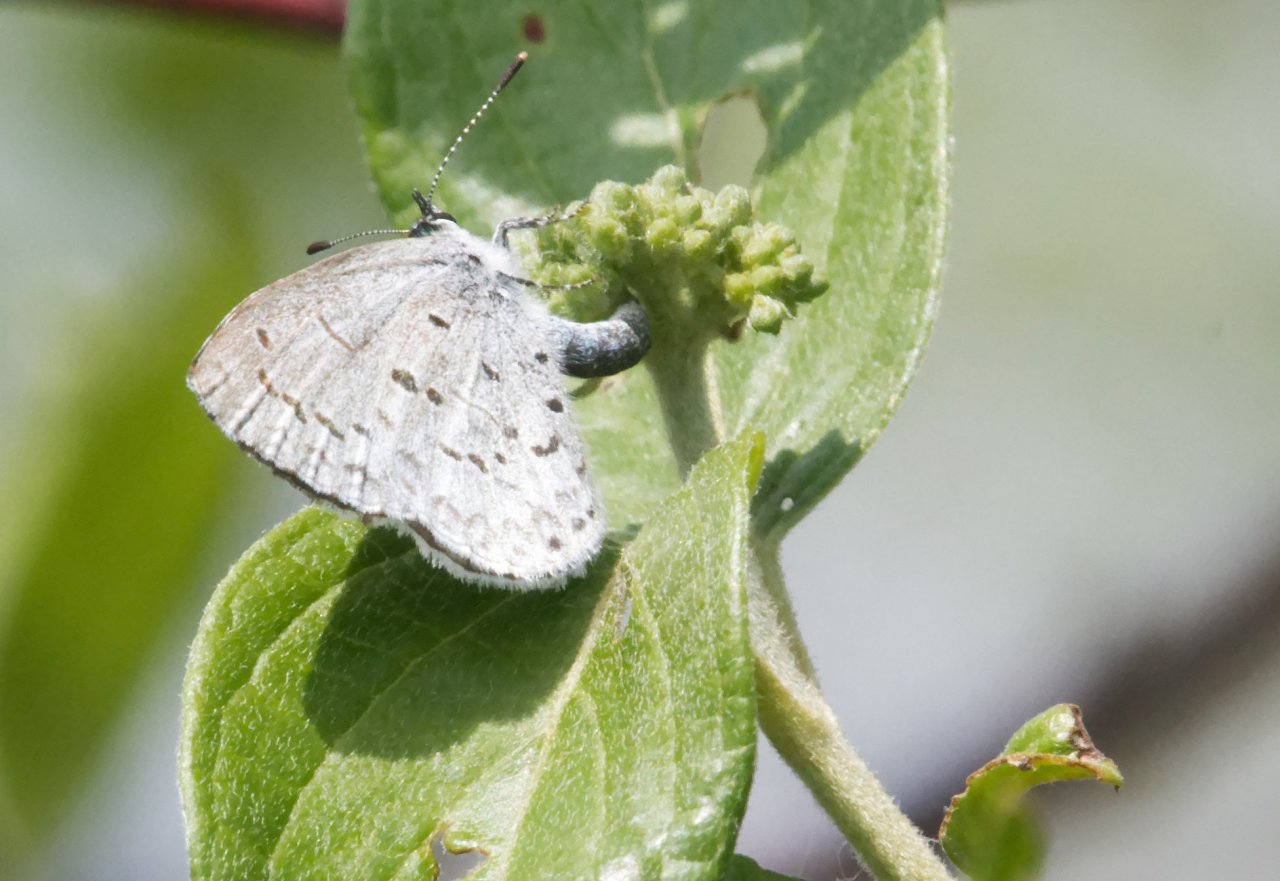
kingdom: Animalia
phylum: Arthropoda
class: Insecta
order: Lepidoptera
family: Lycaenidae
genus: Celastrina
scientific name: Celastrina
